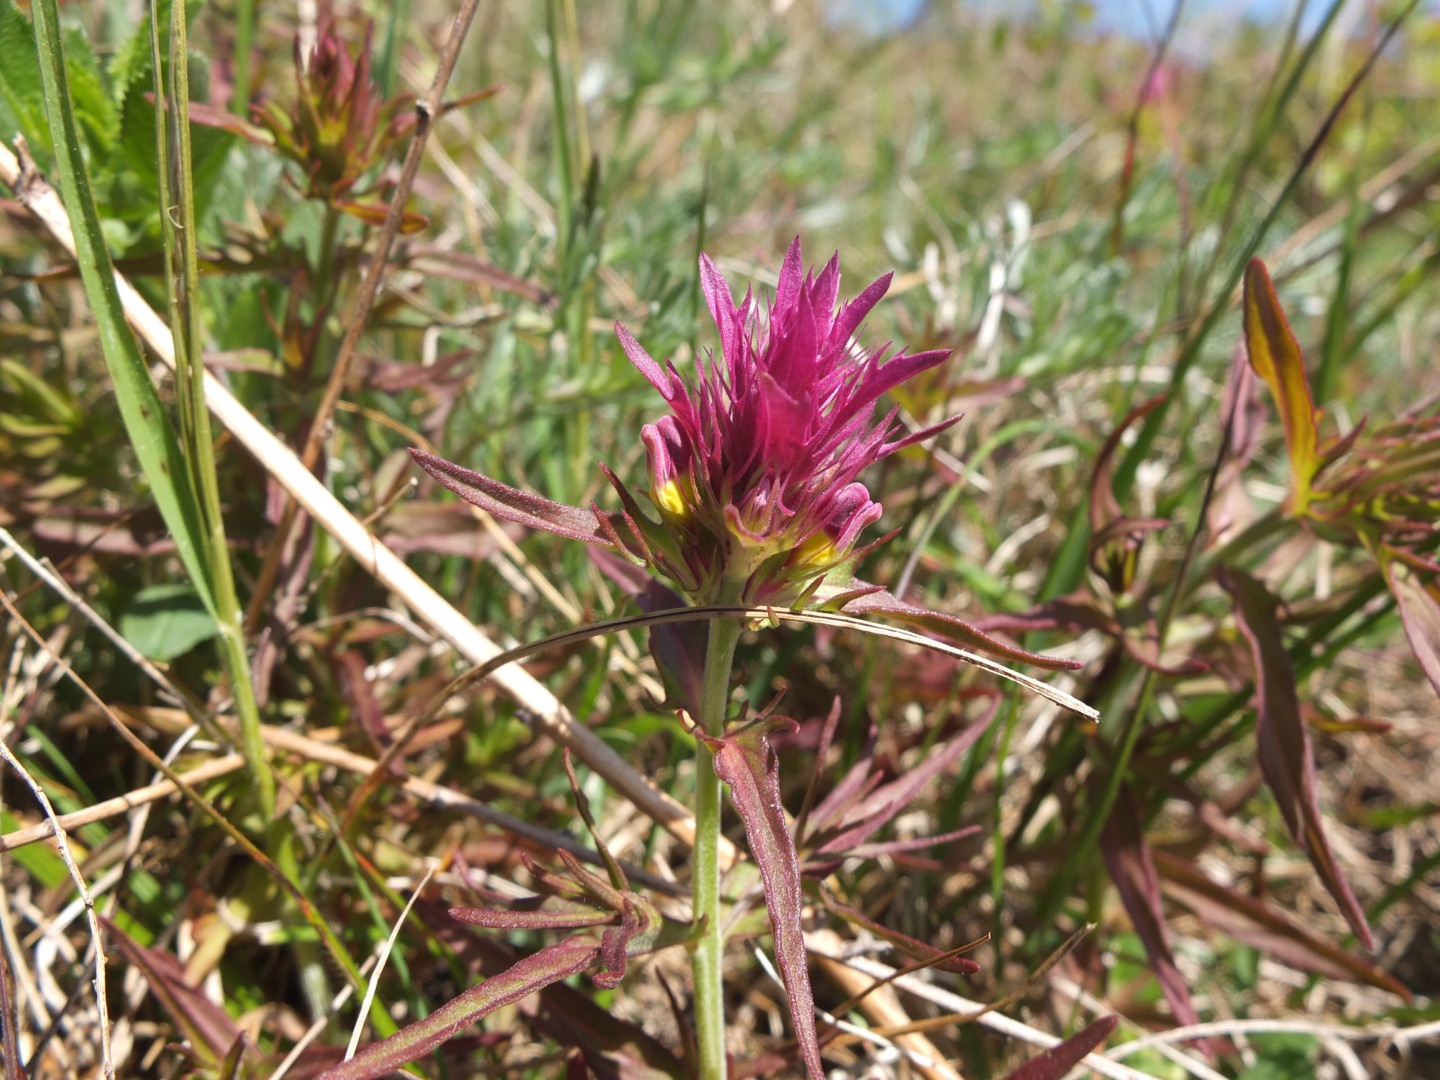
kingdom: Plantae
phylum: Tracheophyta
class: Magnoliopsida
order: Lamiales
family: Orobanchaceae
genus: Melampyrum
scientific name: Melampyrum arvense
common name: Ager-kohvede
